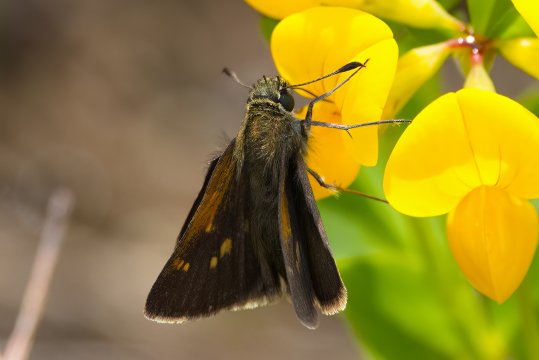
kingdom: Animalia
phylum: Arthropoda
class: Insecta
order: Lepidoptera
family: Hesperiidae
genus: Polites
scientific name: Polites themistocles
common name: Tawny-edged Skipper
